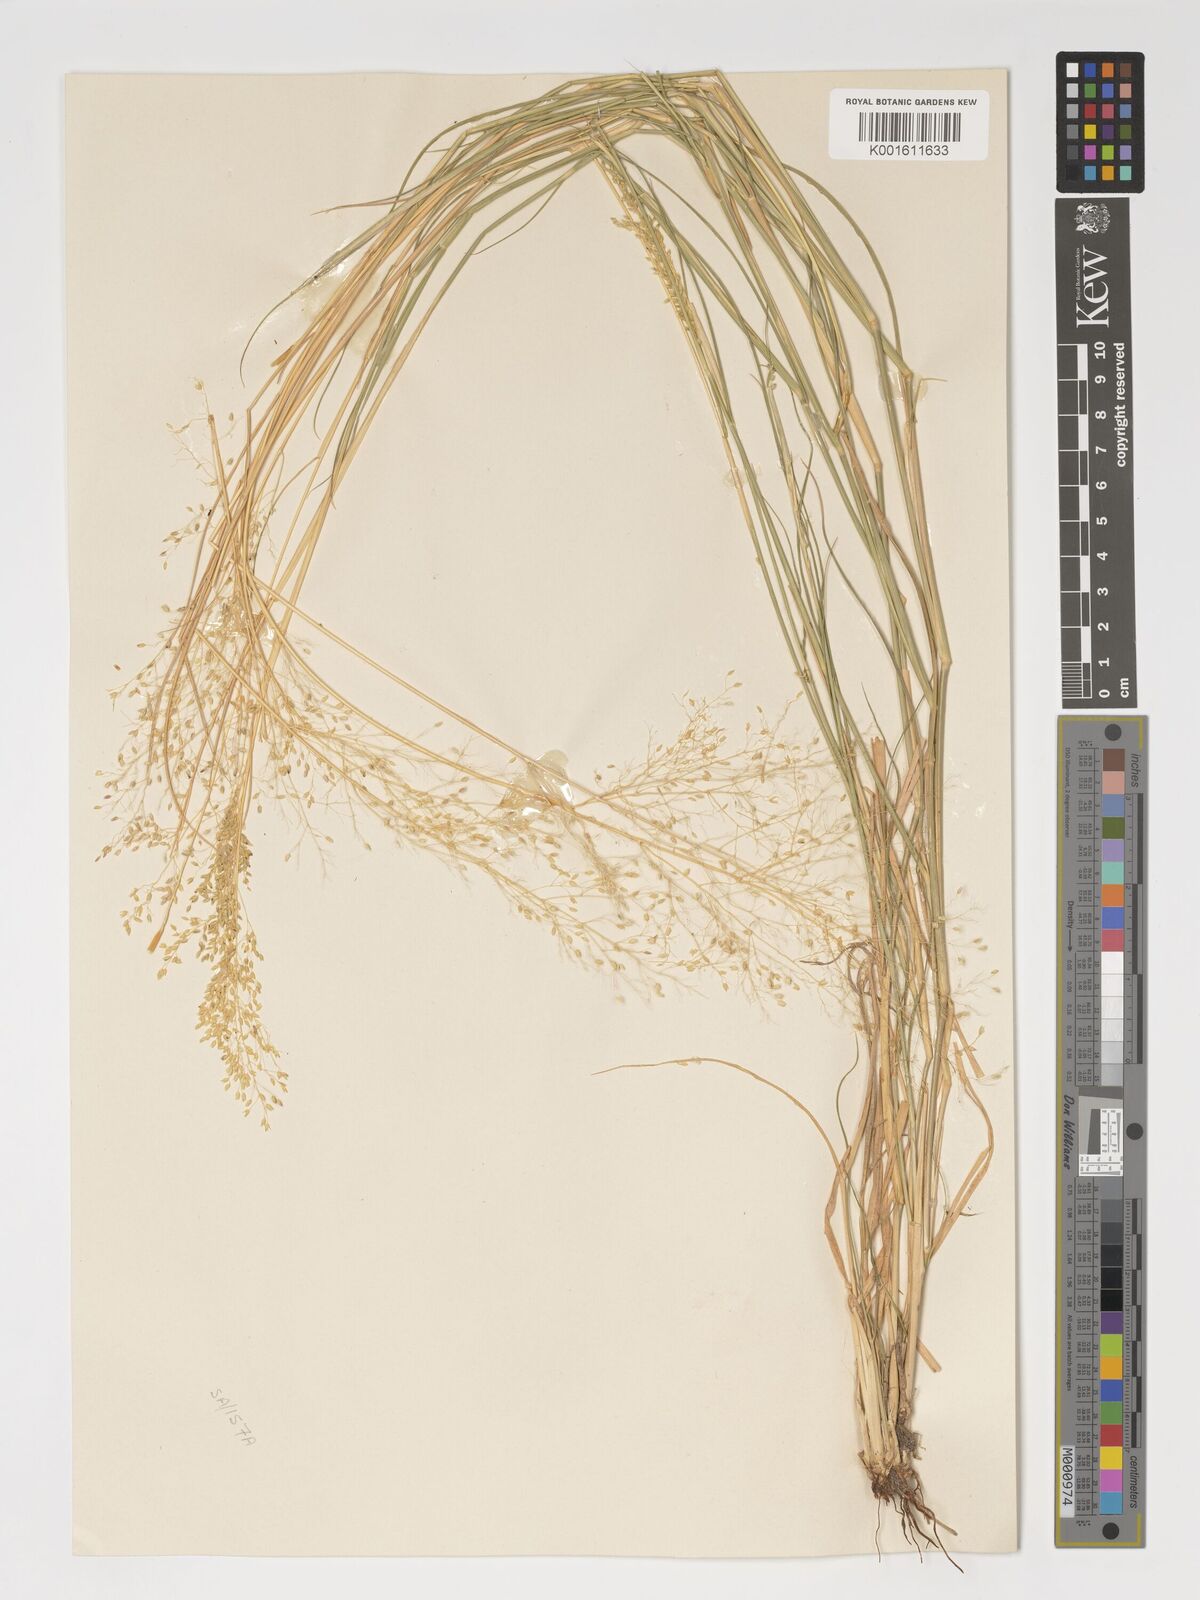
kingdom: Plantae
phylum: Tracheophyta
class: Liliopsida
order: Poales
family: Poaceae
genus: Tricholaena
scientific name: Tricholaena monachne
